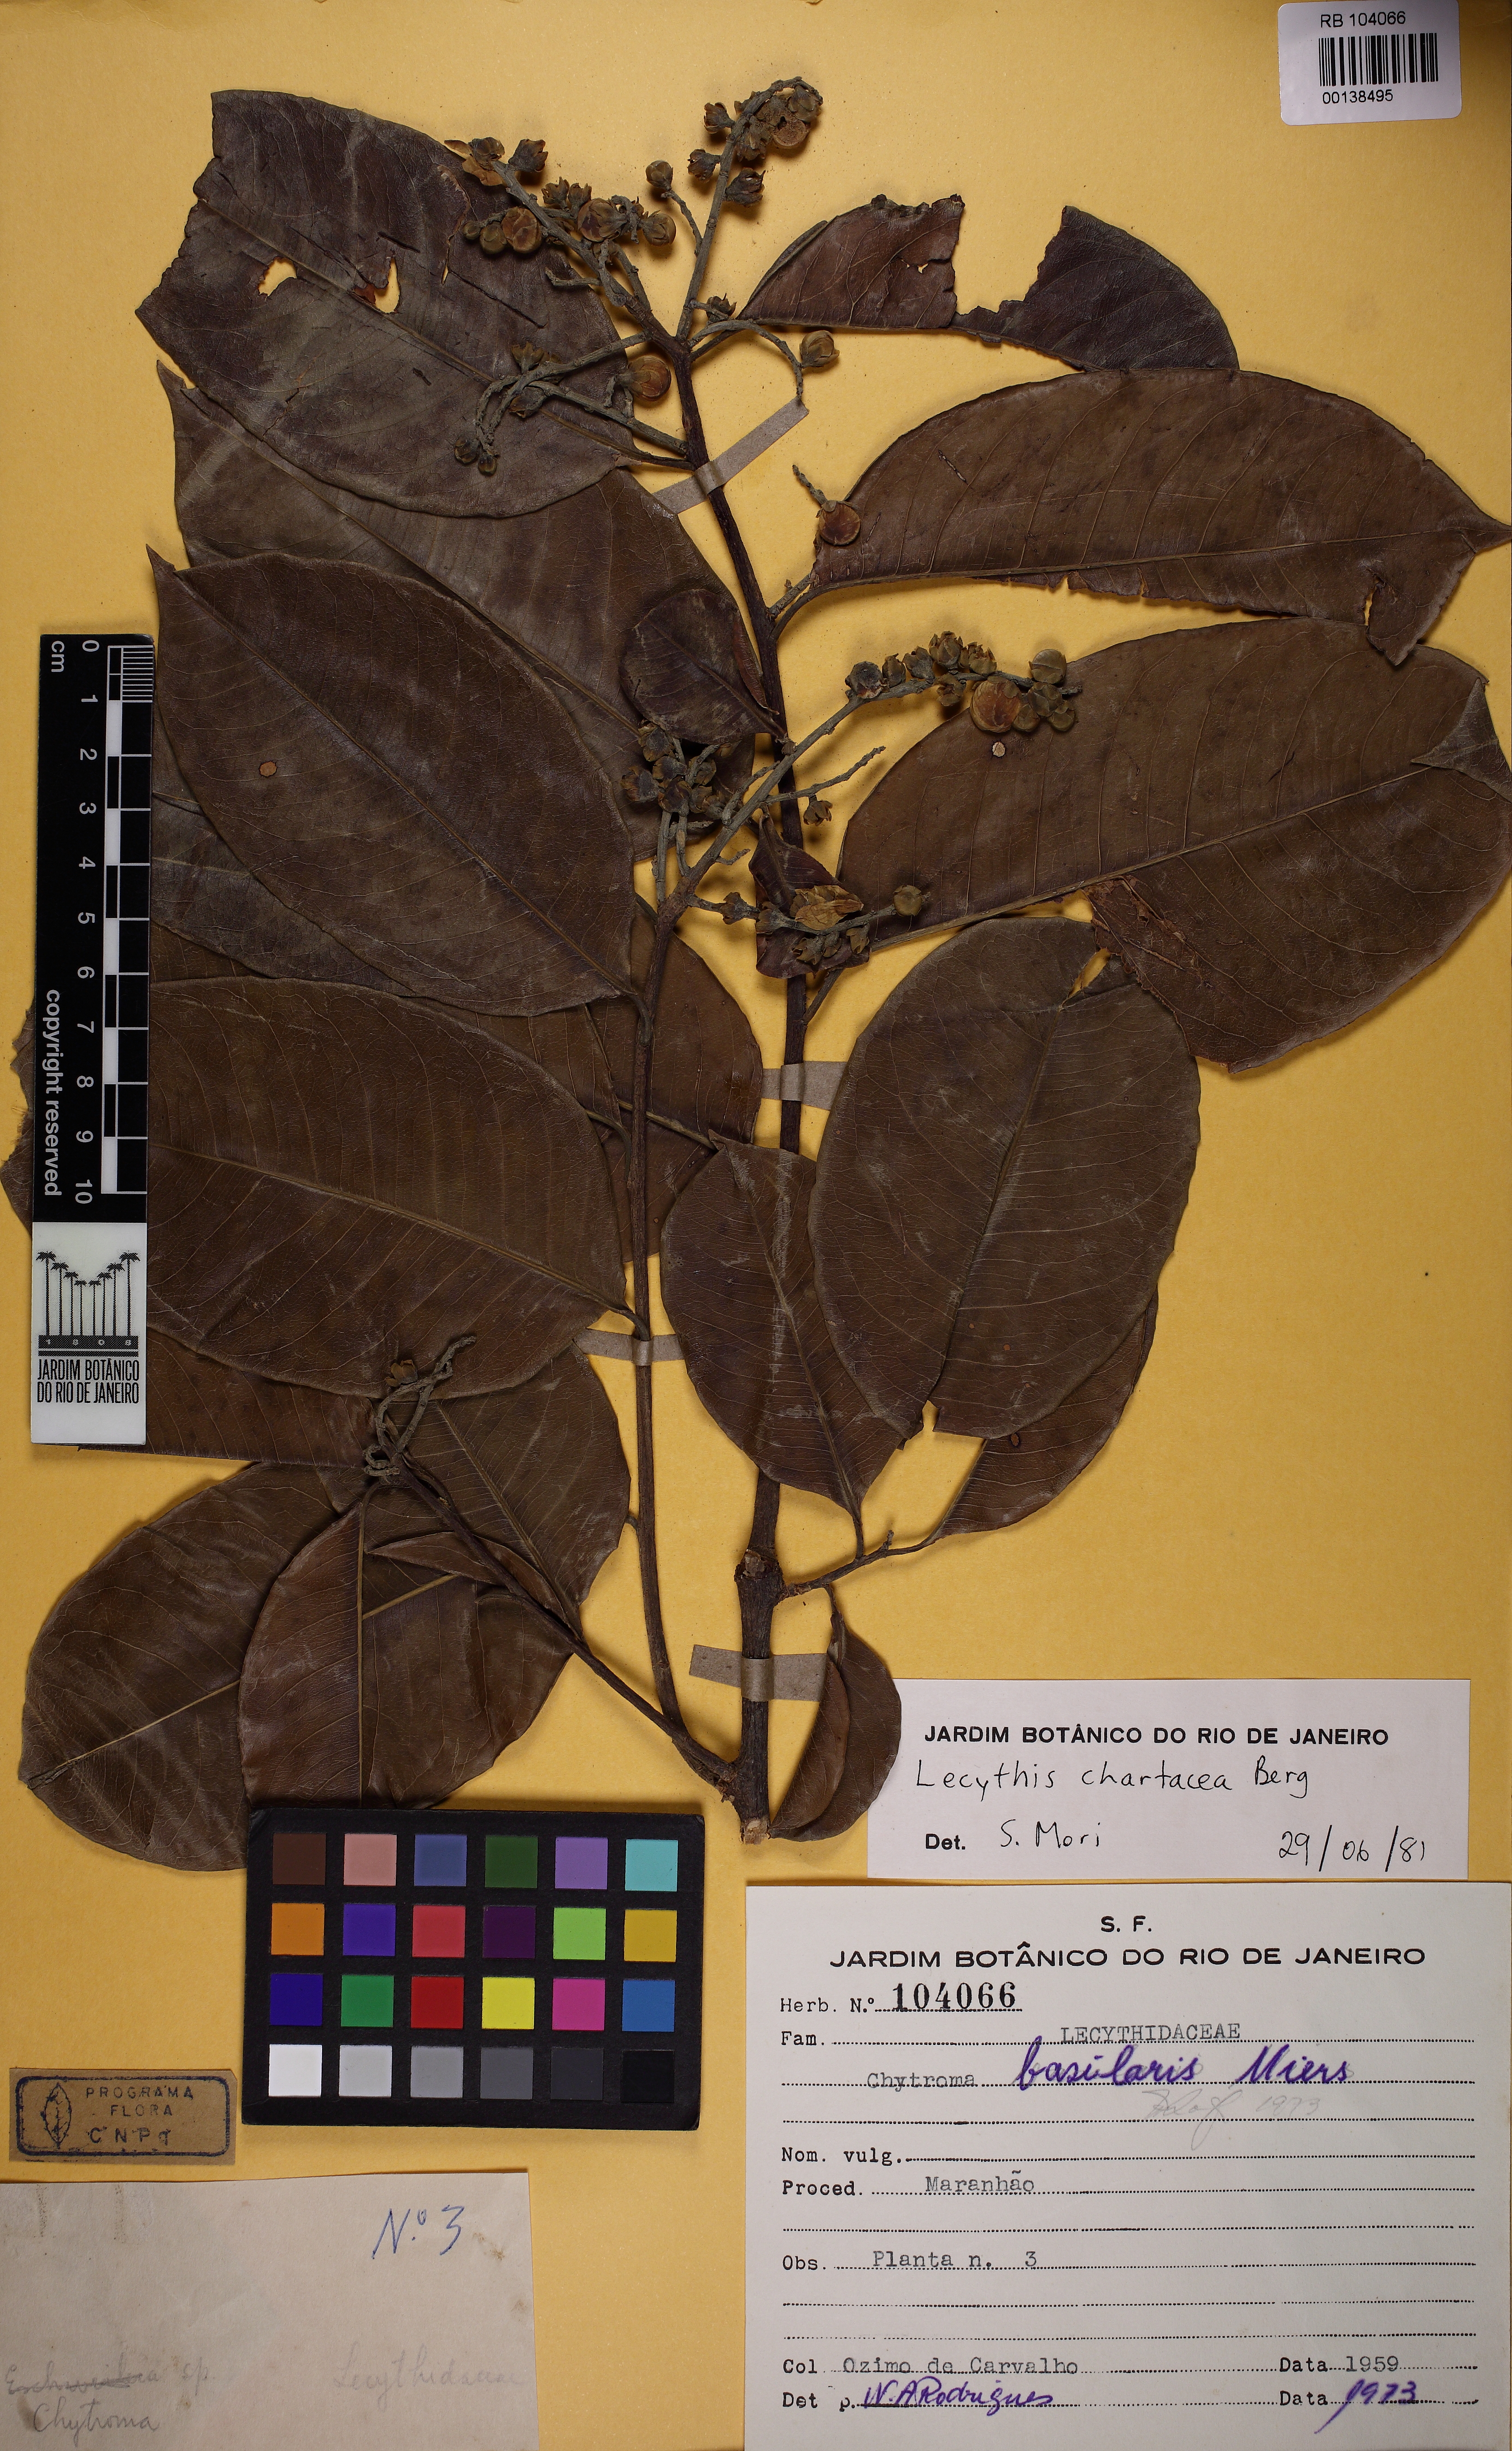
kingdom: Plantae
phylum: Tracheophyta
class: Magnoliopsida
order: Ericales
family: Lecythidaceae
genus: Lecythis
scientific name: Lecythis chartacea
